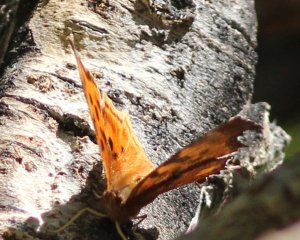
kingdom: Animalia
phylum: Arthropoda
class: Insecta
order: Lepidoptera
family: Nymphalidae
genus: Polygonia
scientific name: Polygonia gracilis
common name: Hoary Comma
